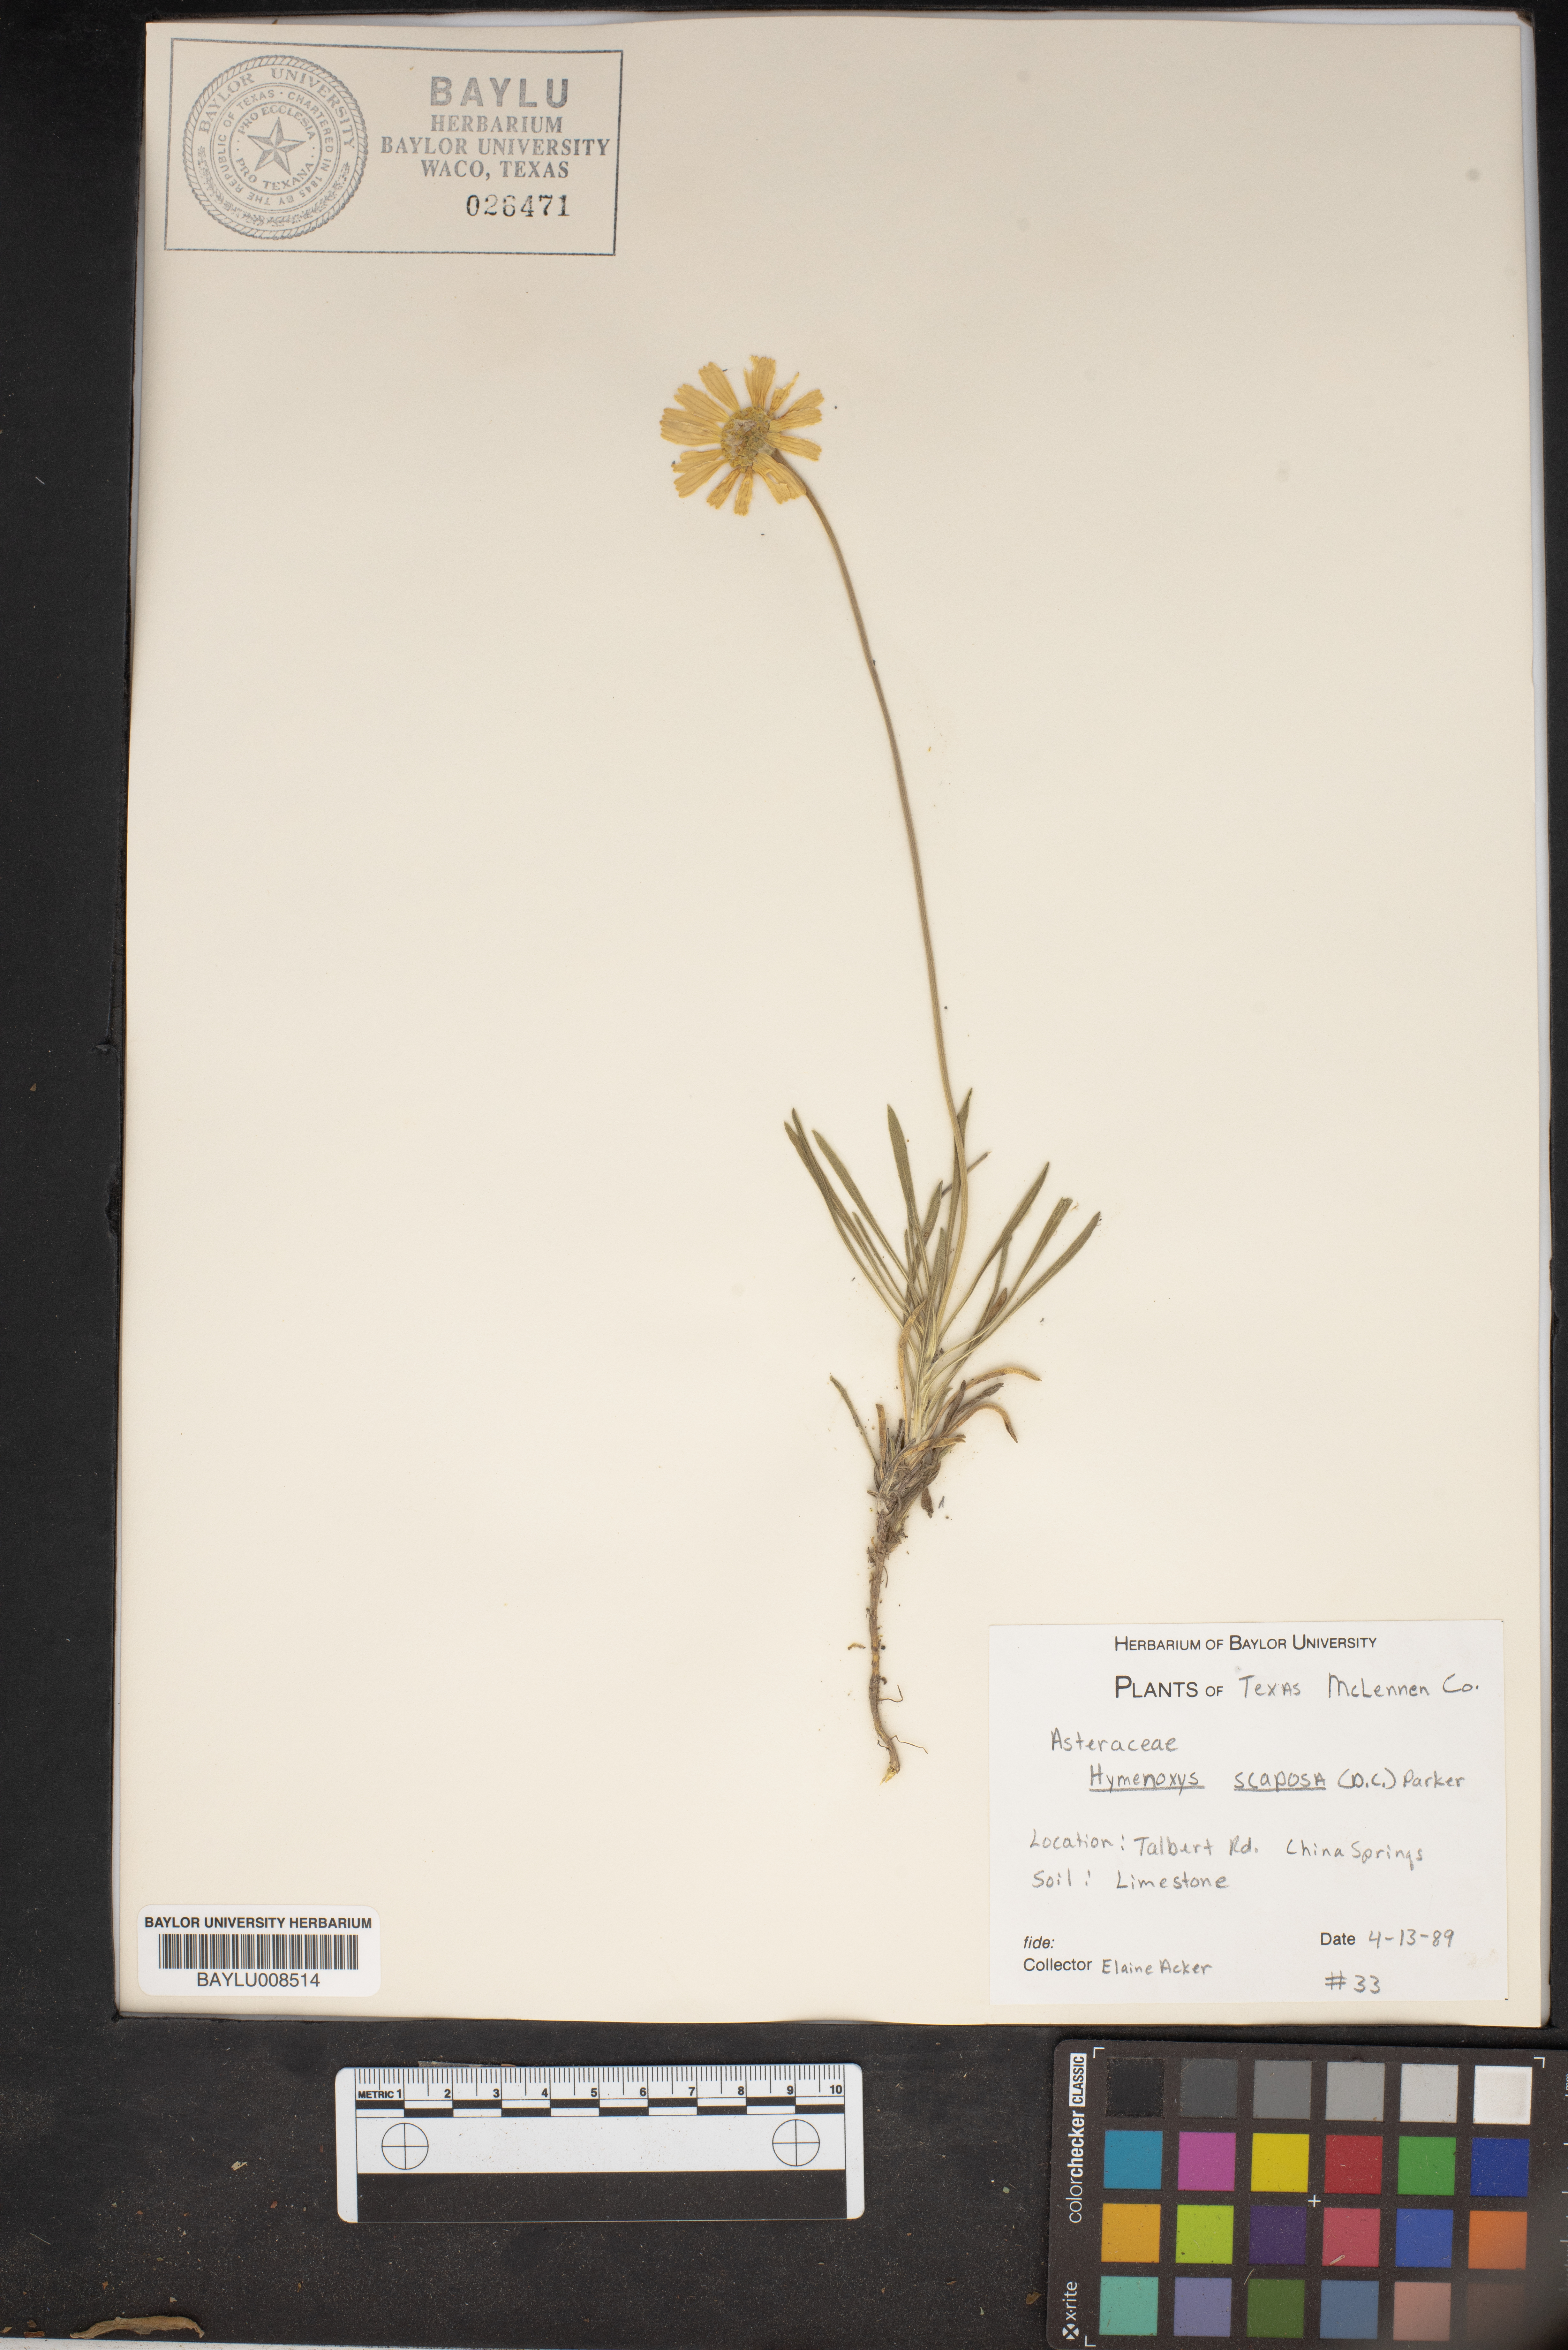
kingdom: Plantae
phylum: Tracheophyta
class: Magnoliopsida
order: Asterales
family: Asteraceae
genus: Tetraneuris
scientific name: Tetraneuris scaposa
